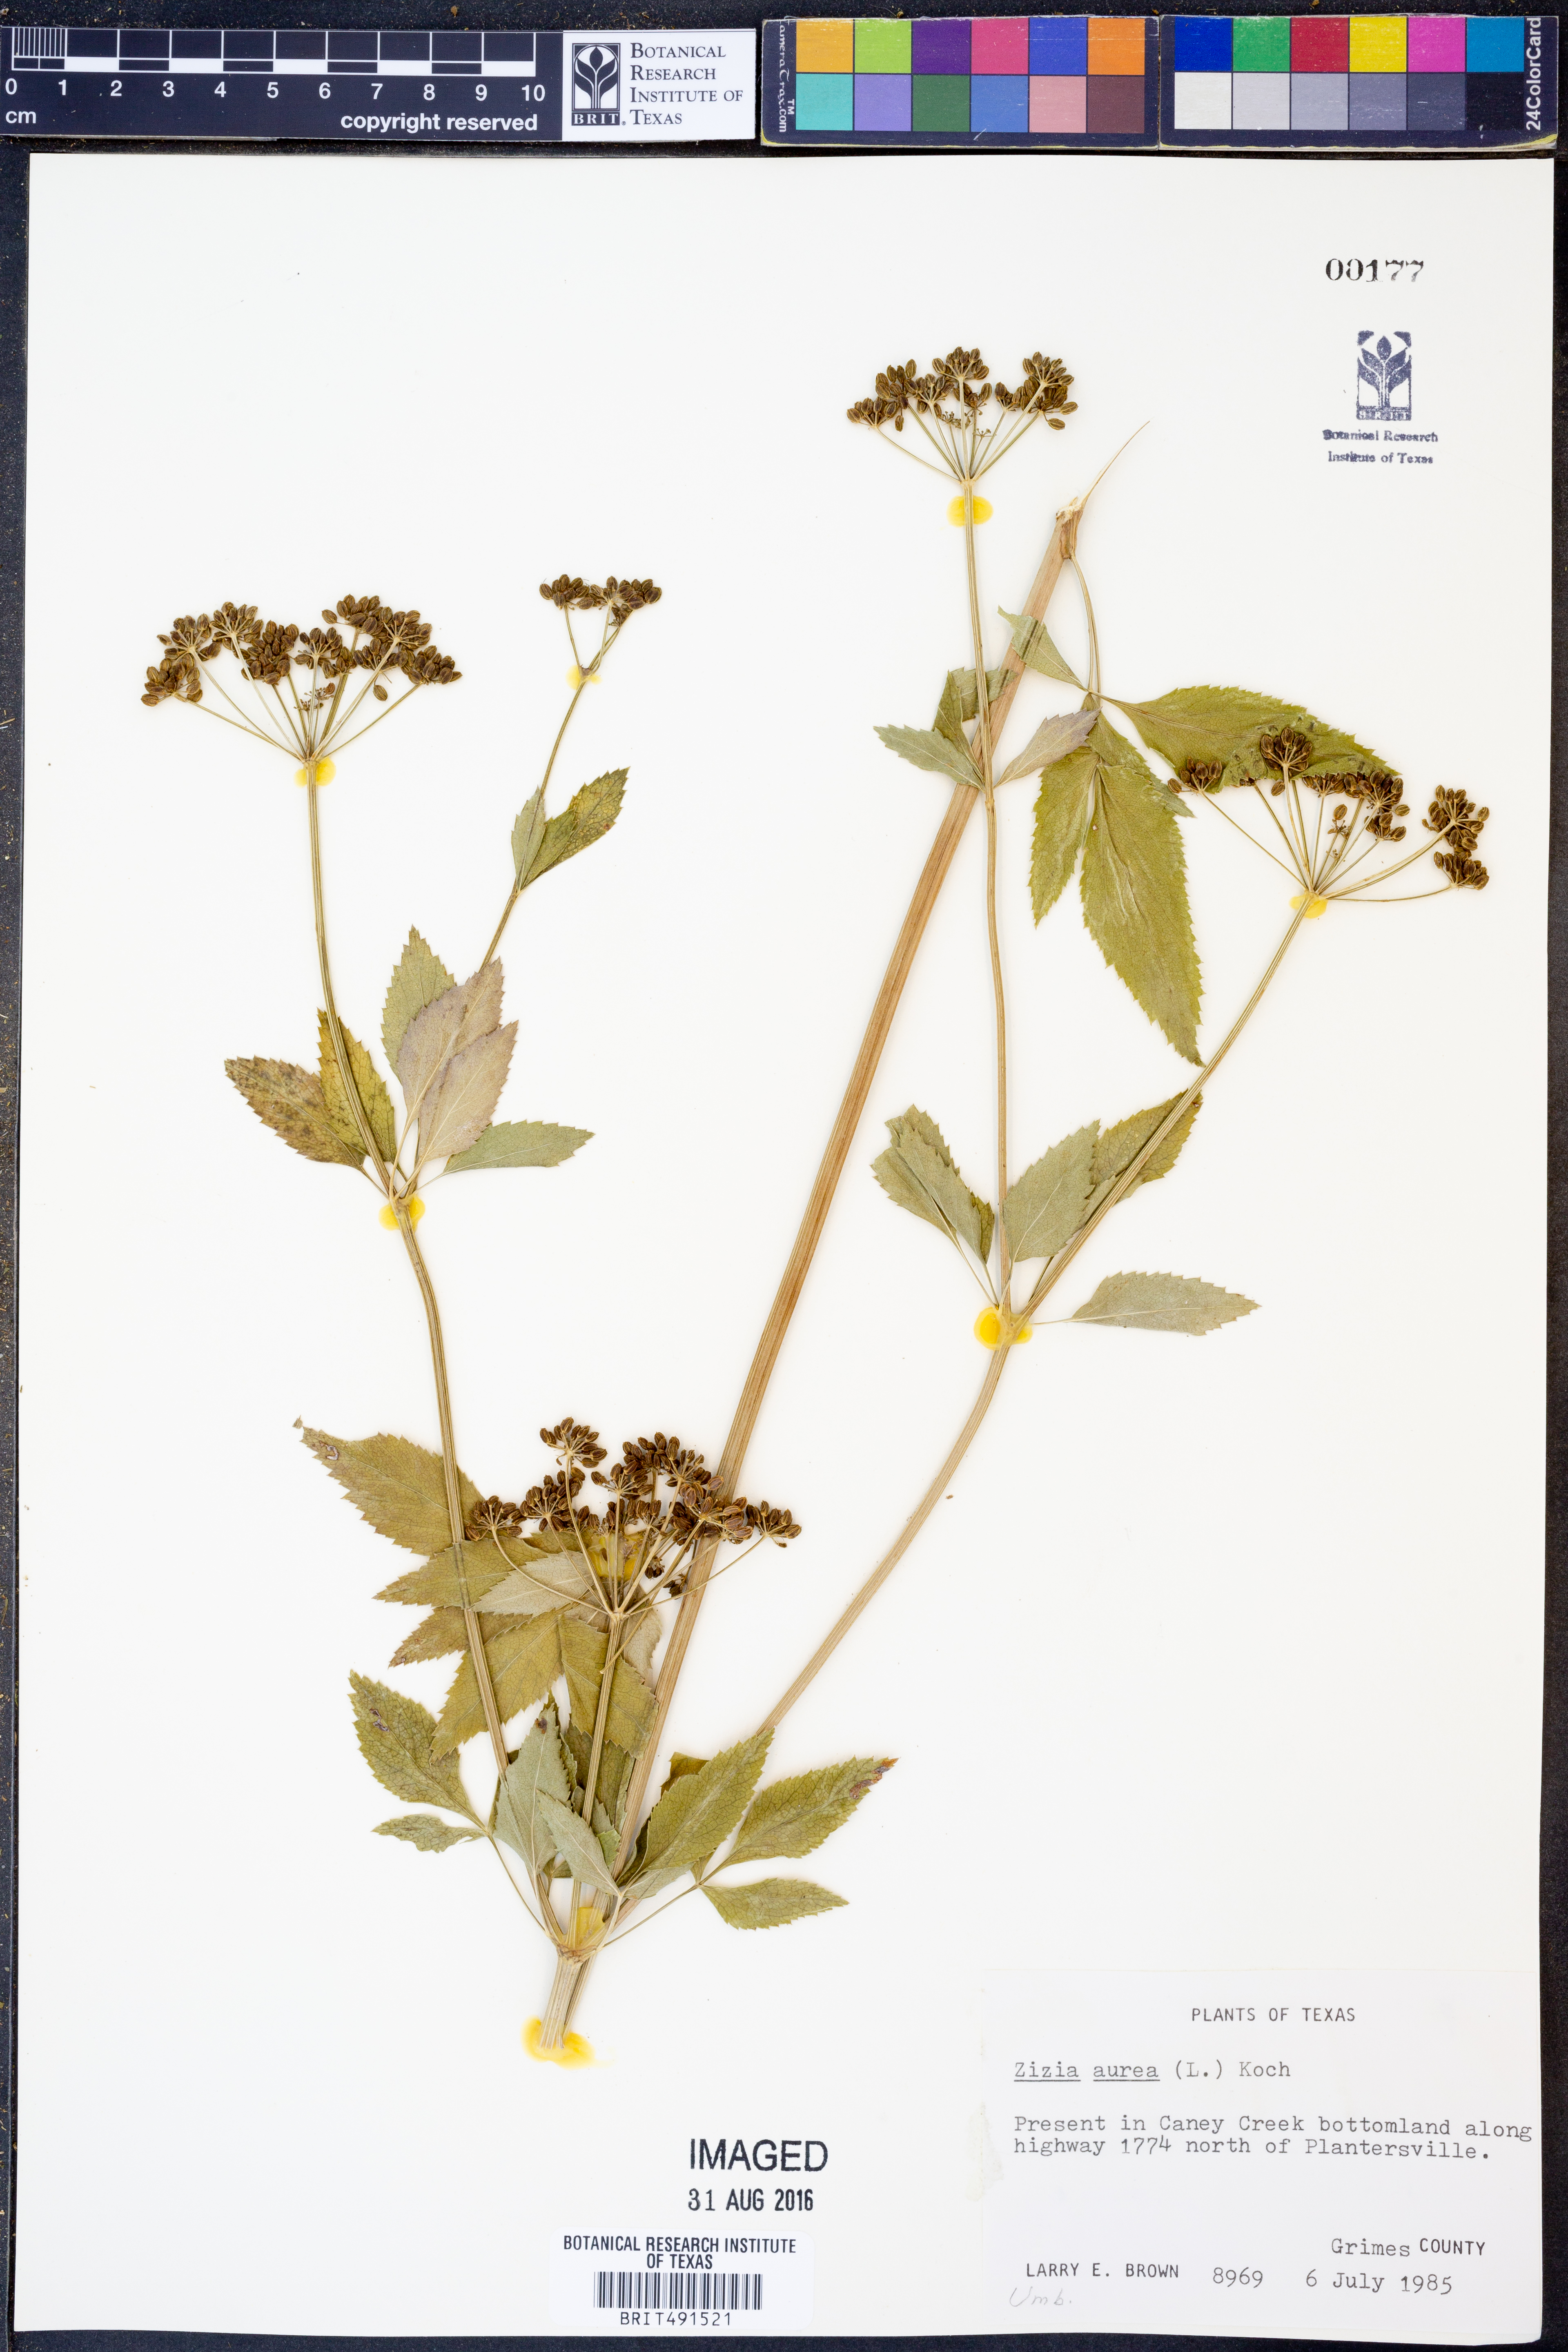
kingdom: Plantae
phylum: Tracheophyta
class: Magnoliopsida
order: Apiales
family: Apiaceae
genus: Zizia
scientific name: Zizia aurea
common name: Golden alexanders
